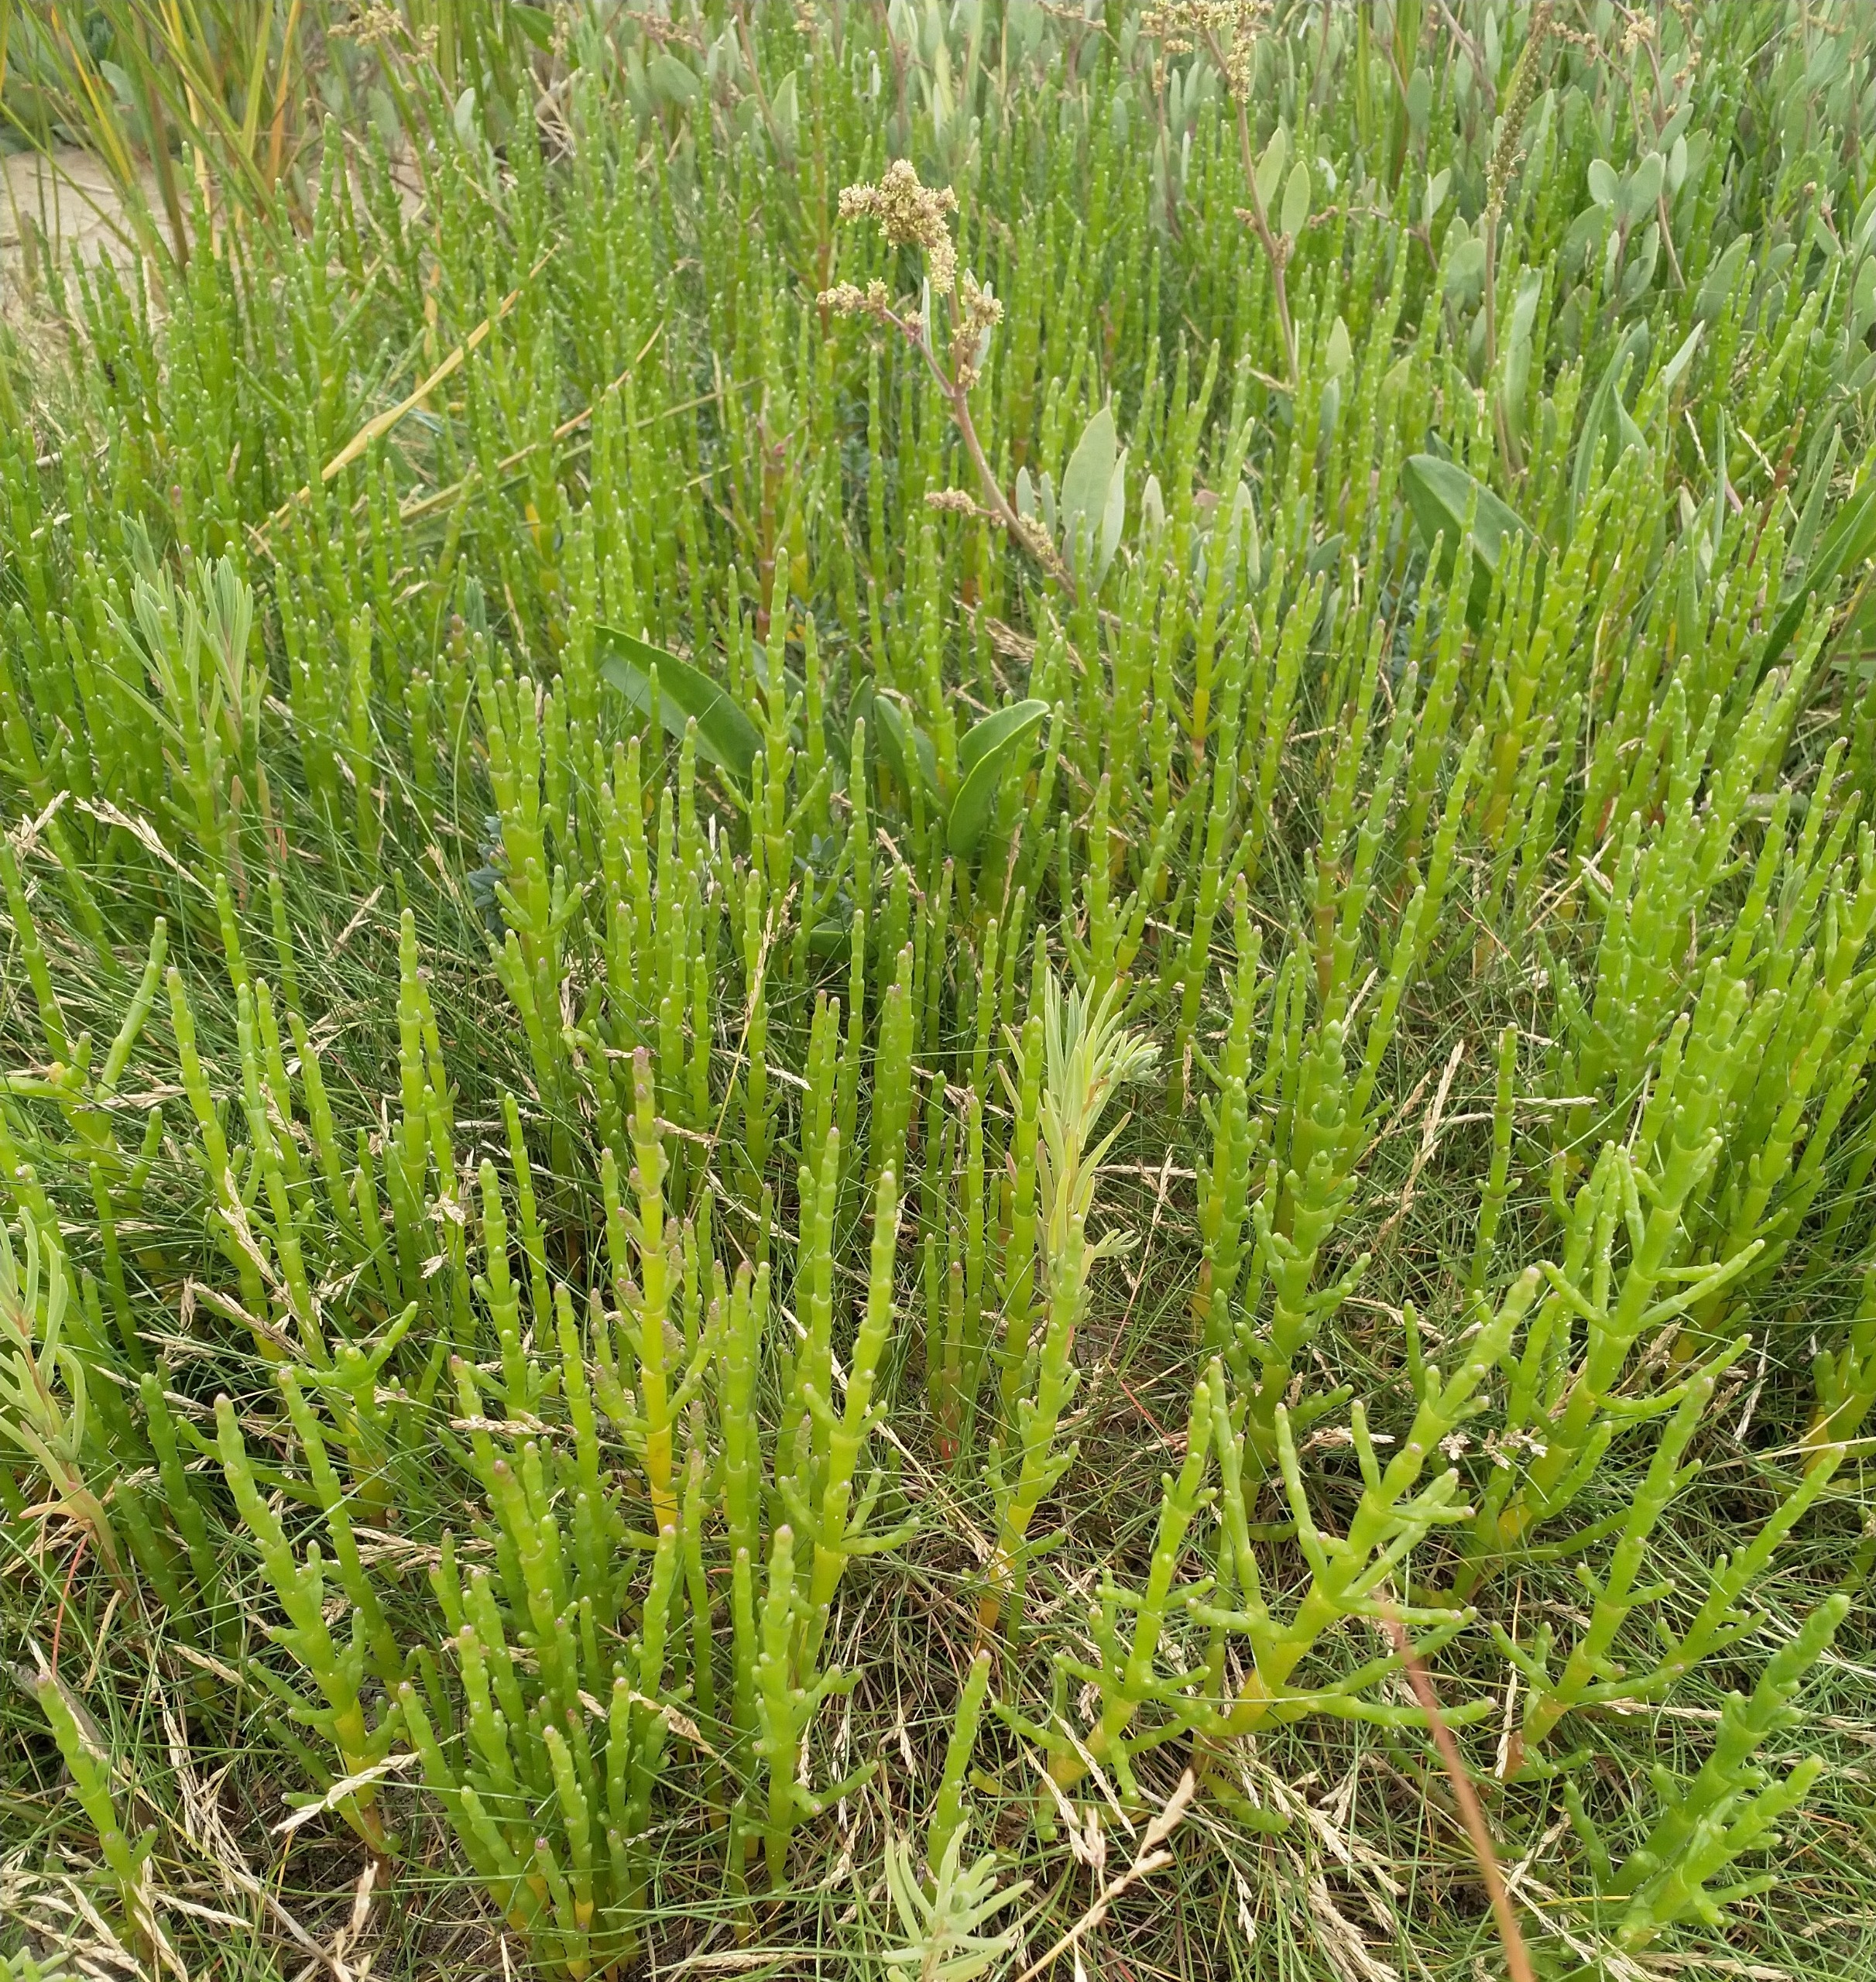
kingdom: Plantae
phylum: Tracheophyta
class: Magnoliopsida
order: Caryophyllales
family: Amaranthaceae
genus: Salicornia
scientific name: Salicornia europaea
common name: Almindelig salturt
